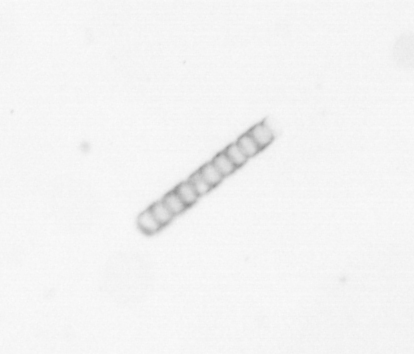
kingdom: Chromista
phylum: Ochrophyta
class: Bacillariophyceae
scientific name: Bacillariophyceae
